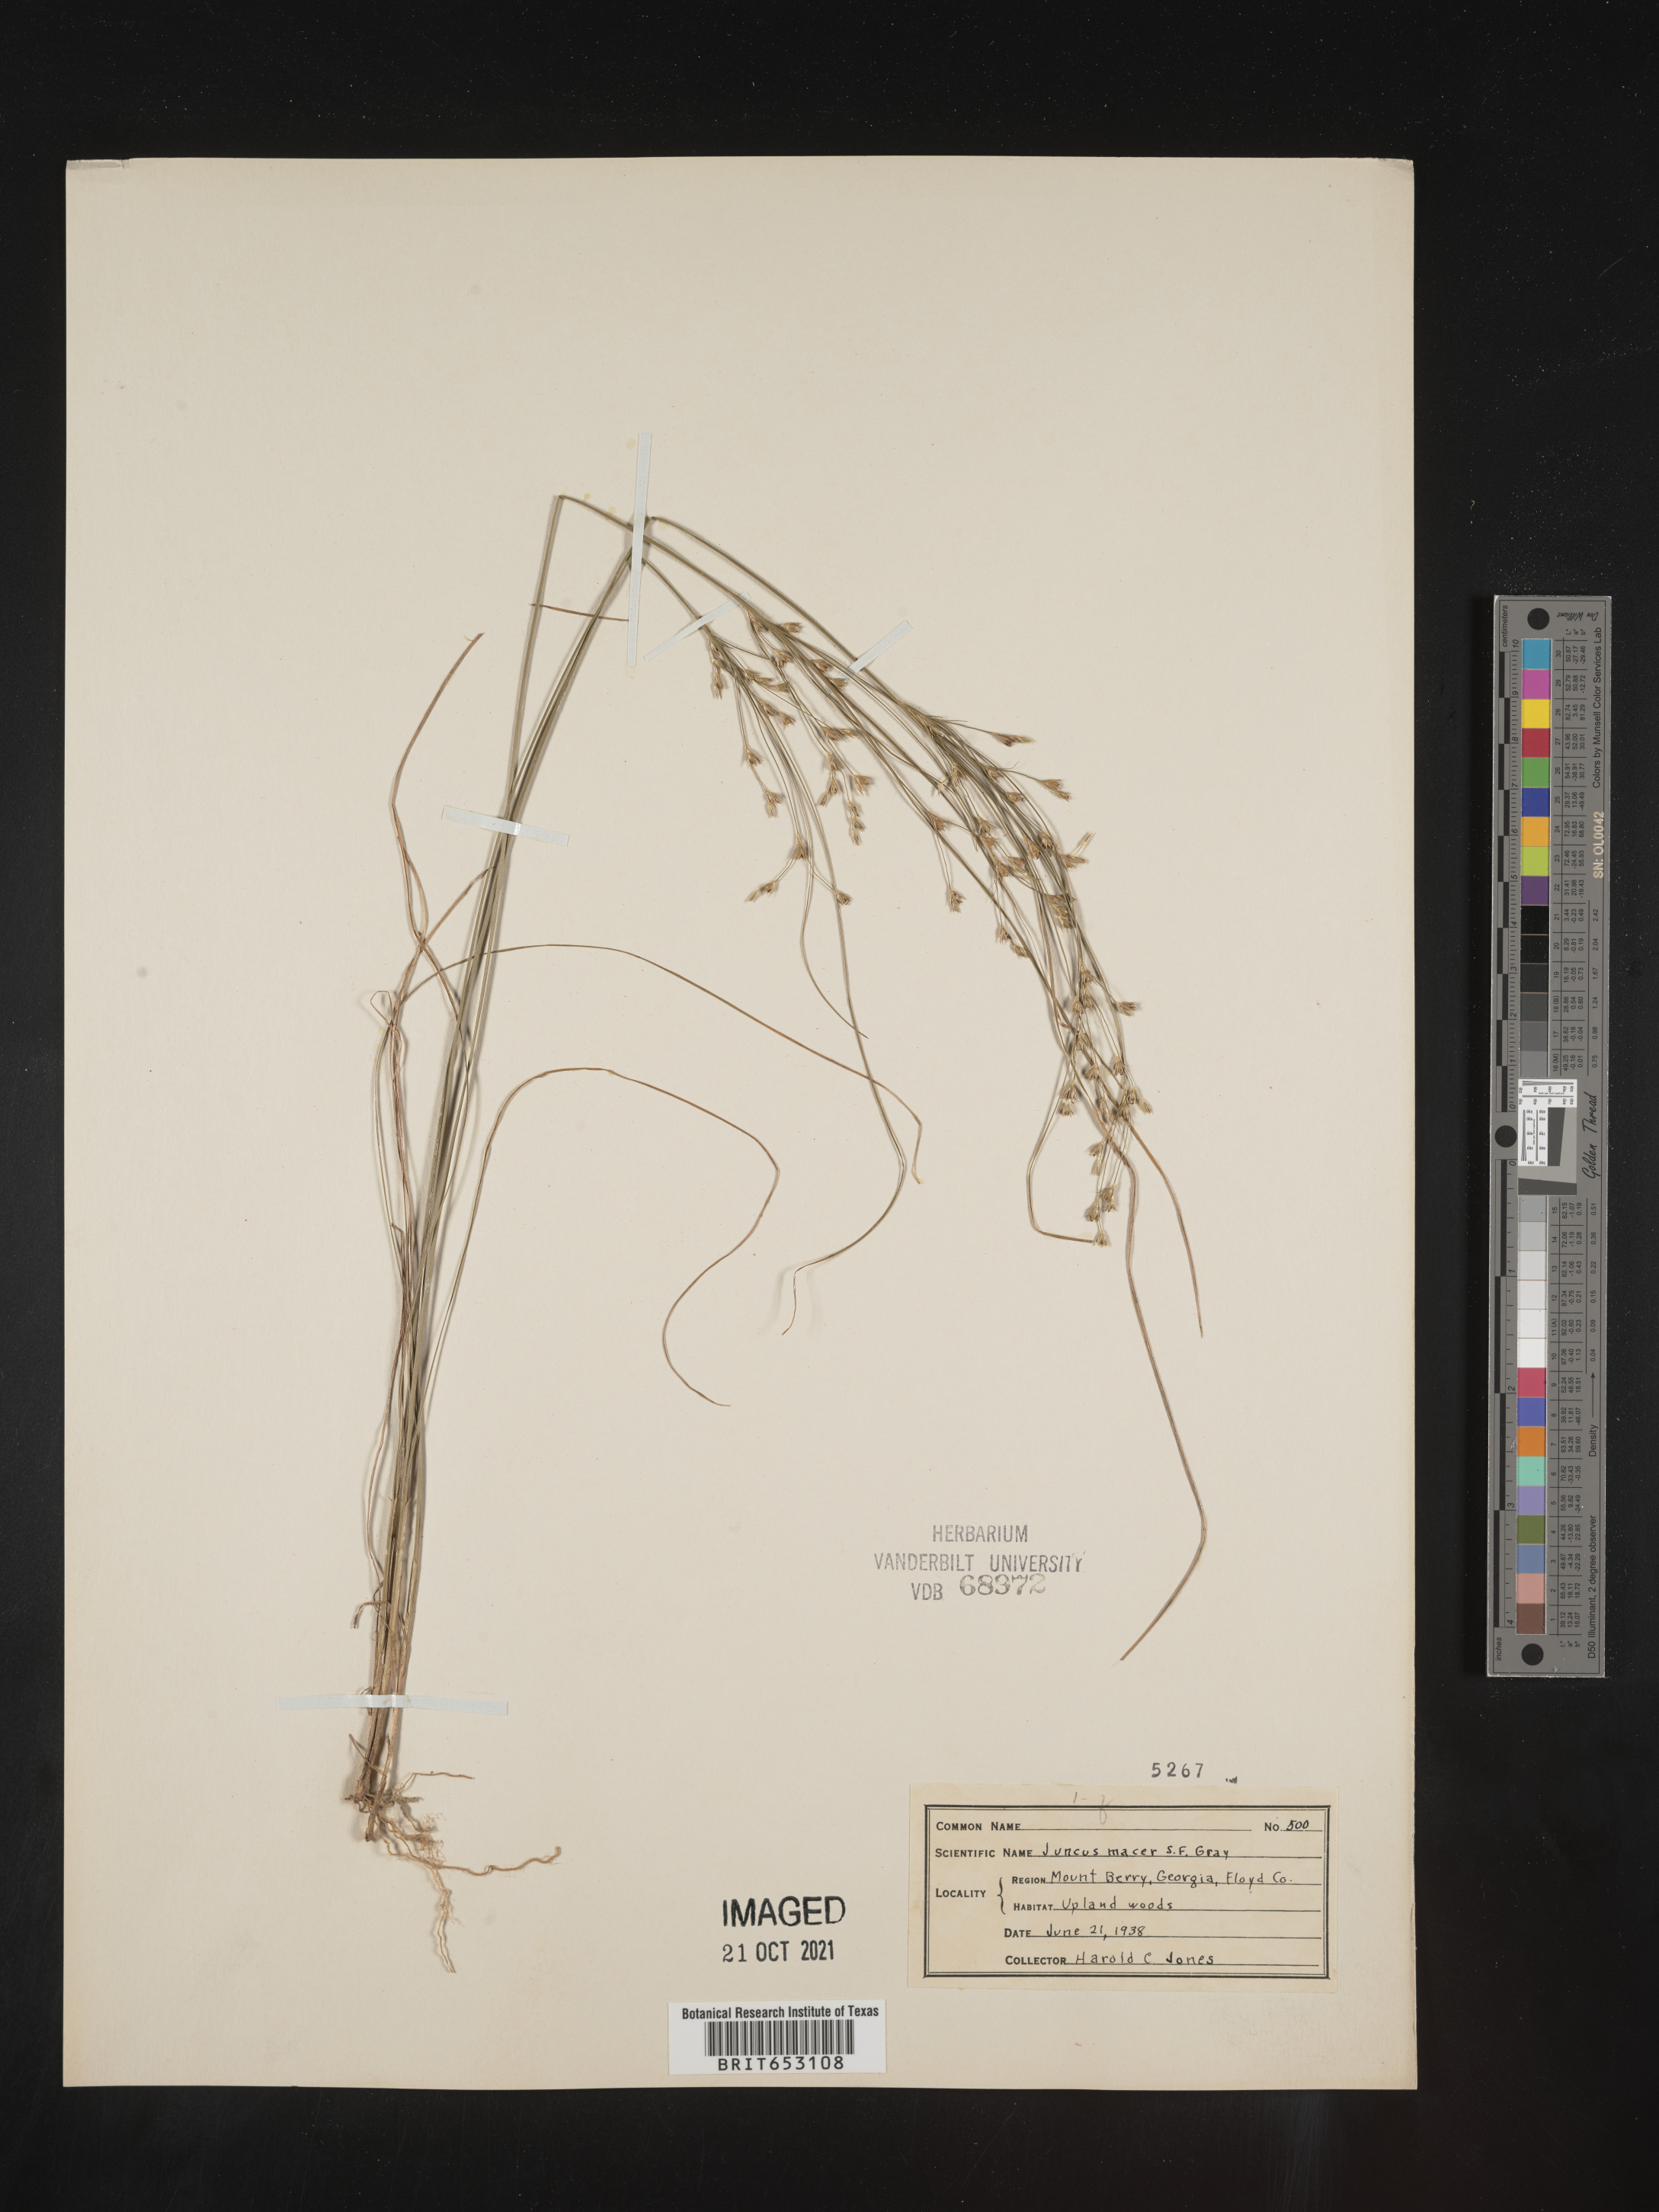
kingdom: Plantae
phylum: Tracheophyta
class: Liliopsida
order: Poales
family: Juncaceae
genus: Juncus
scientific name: Juncus tenuis
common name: Slender rush
